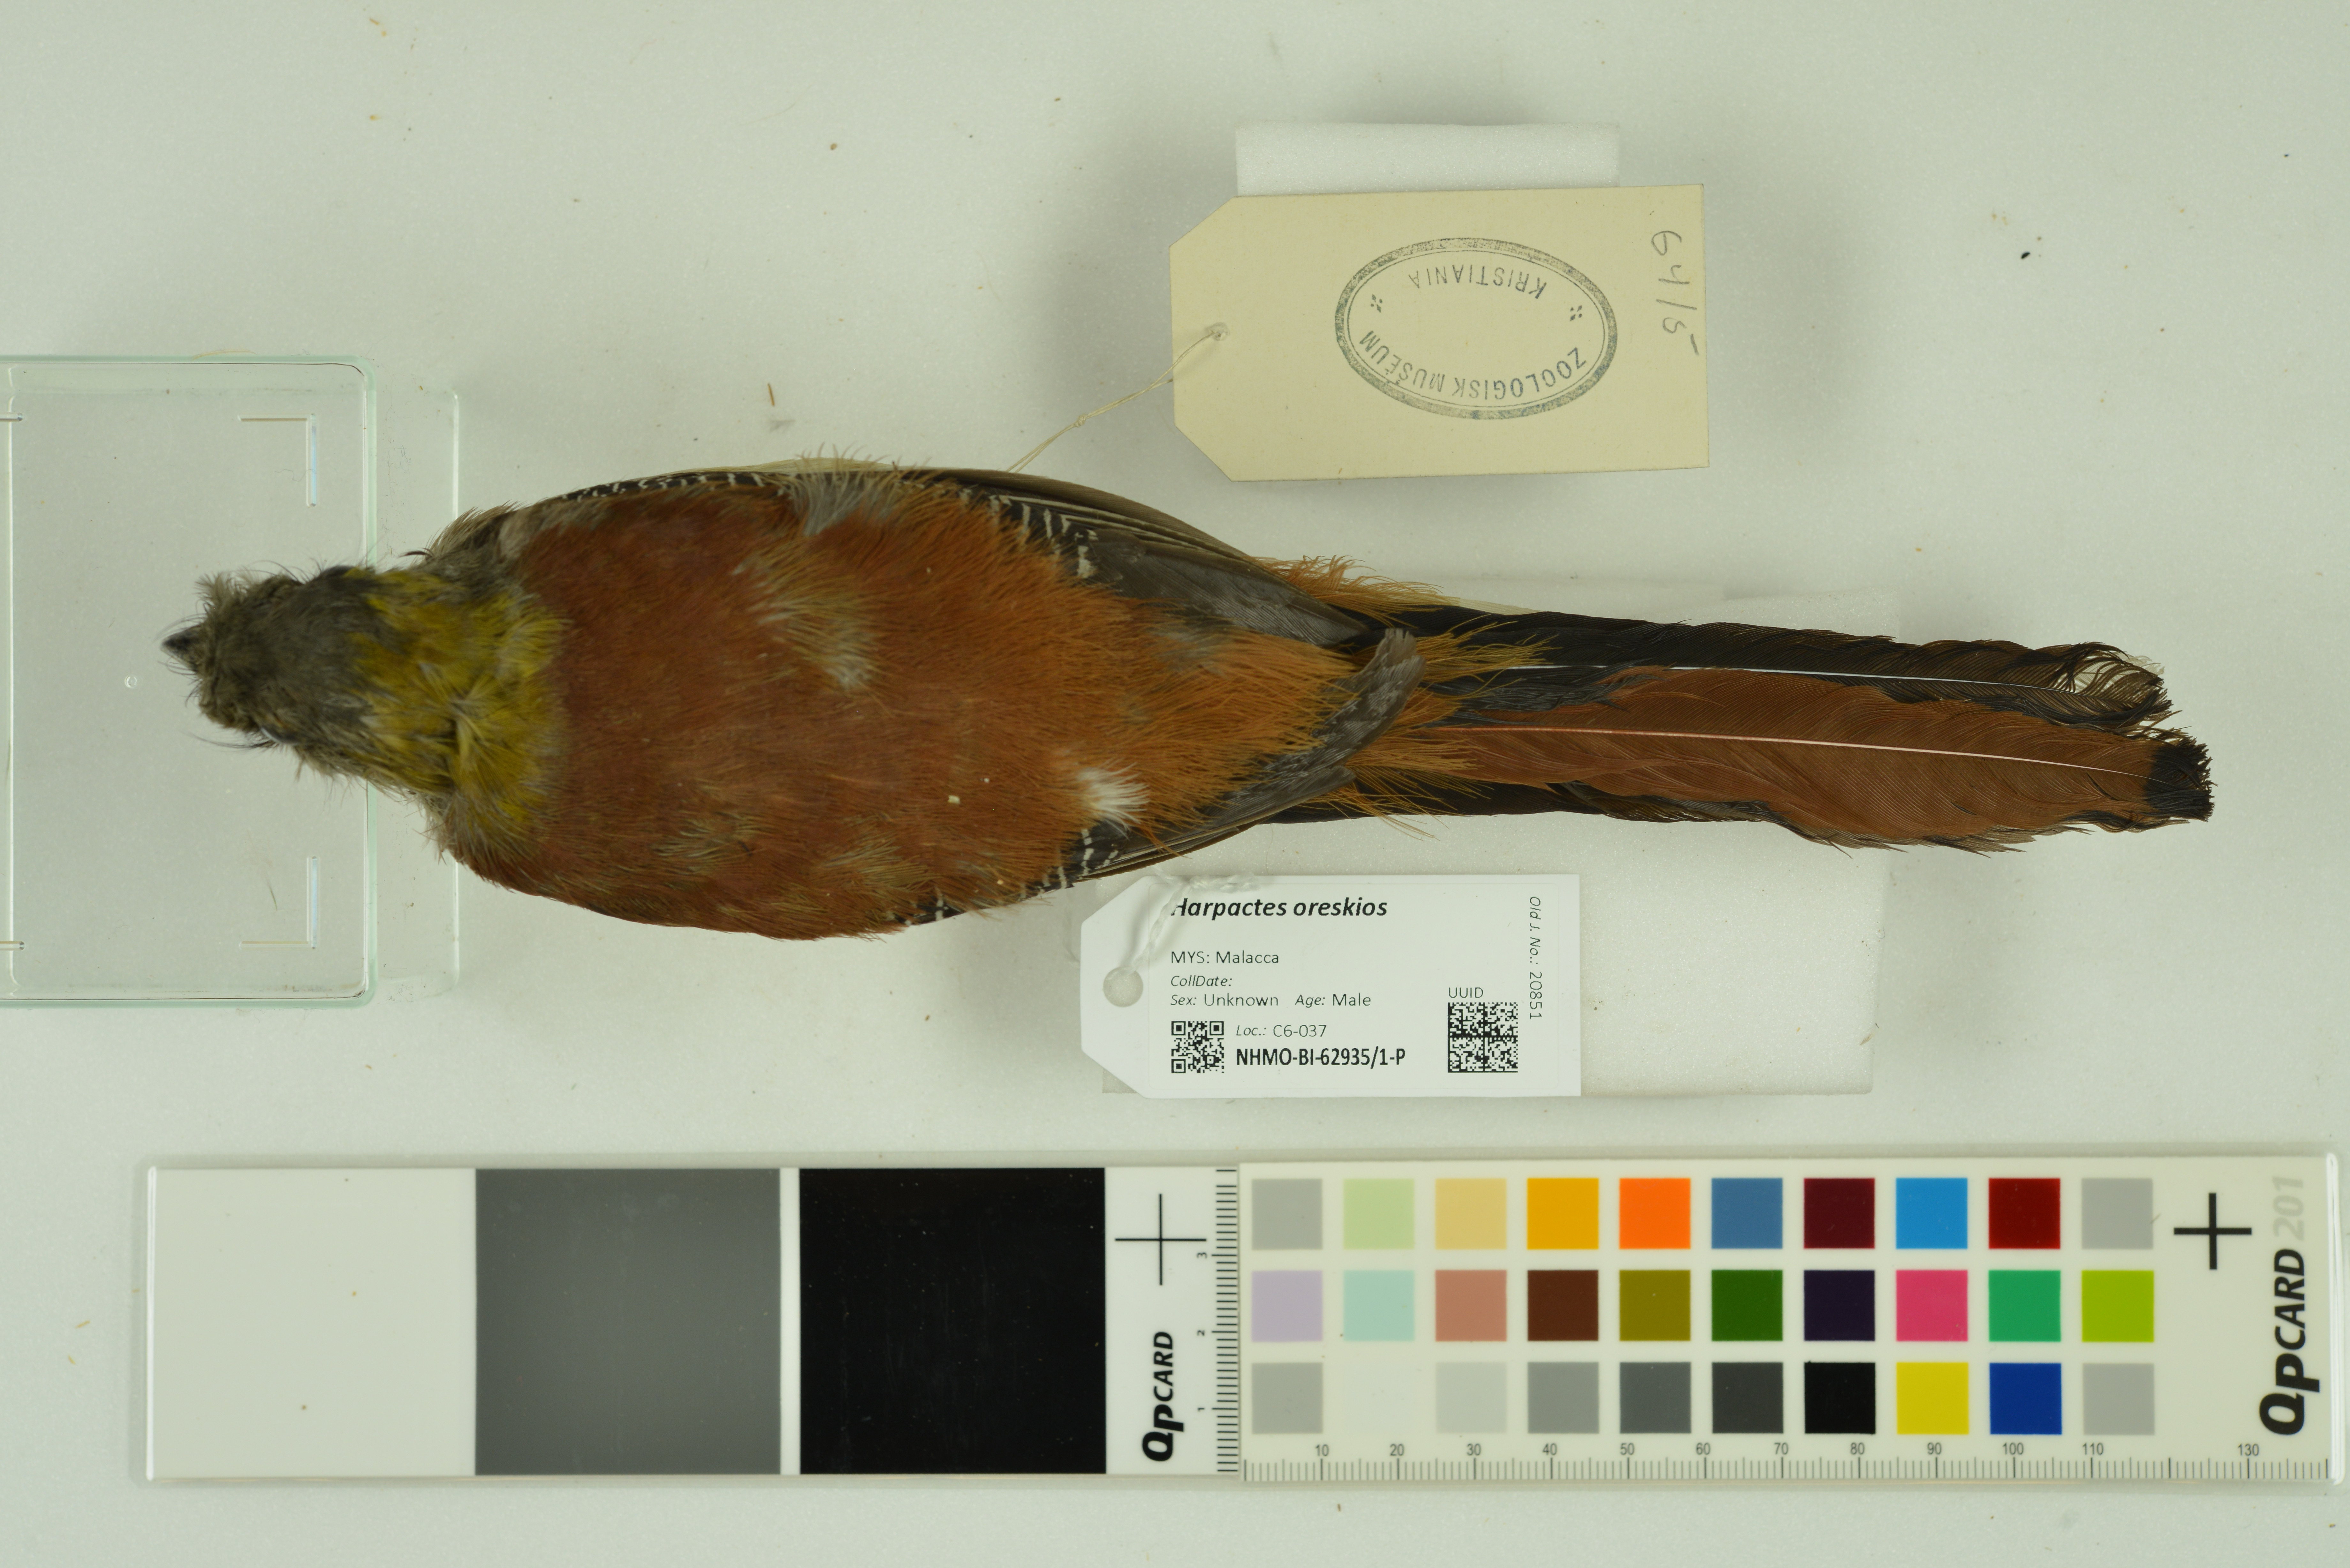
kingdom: Animalia
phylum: Chordata
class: Aves
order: Trogoniformes
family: Trogonidae
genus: Harpactes
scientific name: Harpactes oreskios
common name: Orange-breasted trogon
